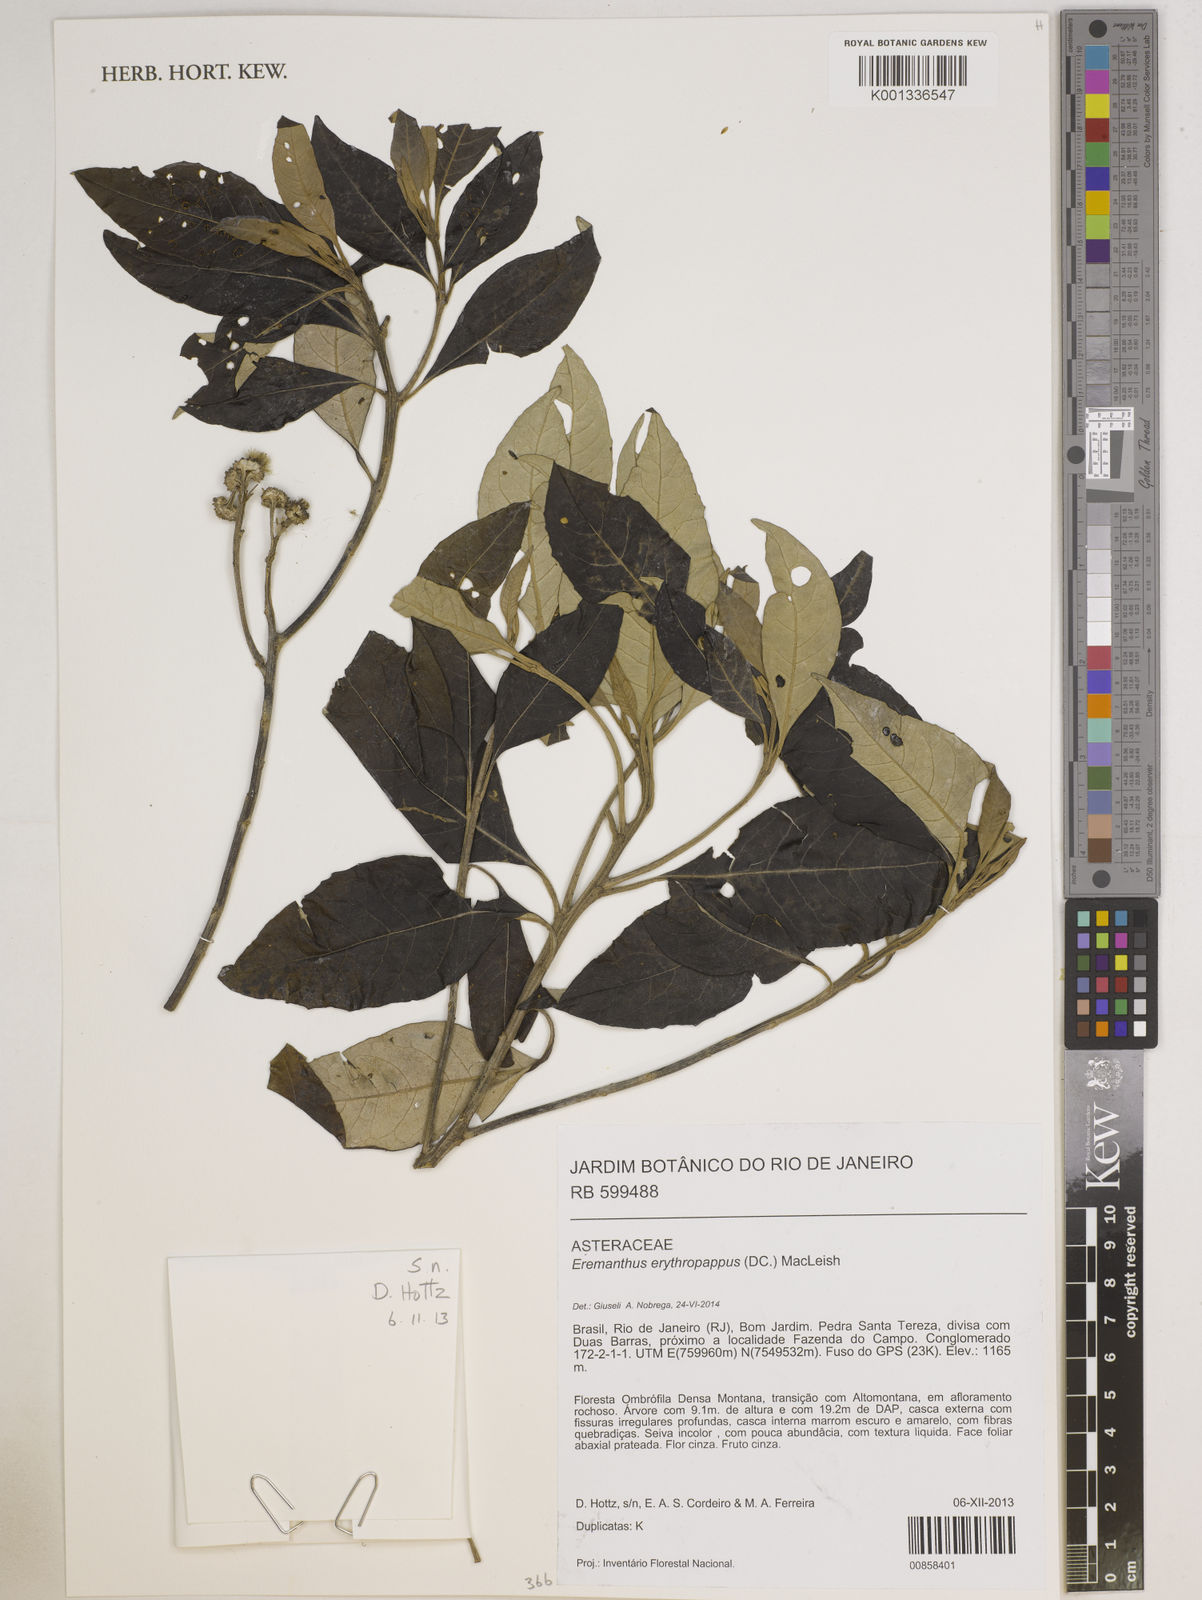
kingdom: Plantae
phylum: Tracheophyta
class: Magnoliopsida
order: Asterales
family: Asteraceae
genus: Eremanthus
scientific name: Eremanthus erythropappus
